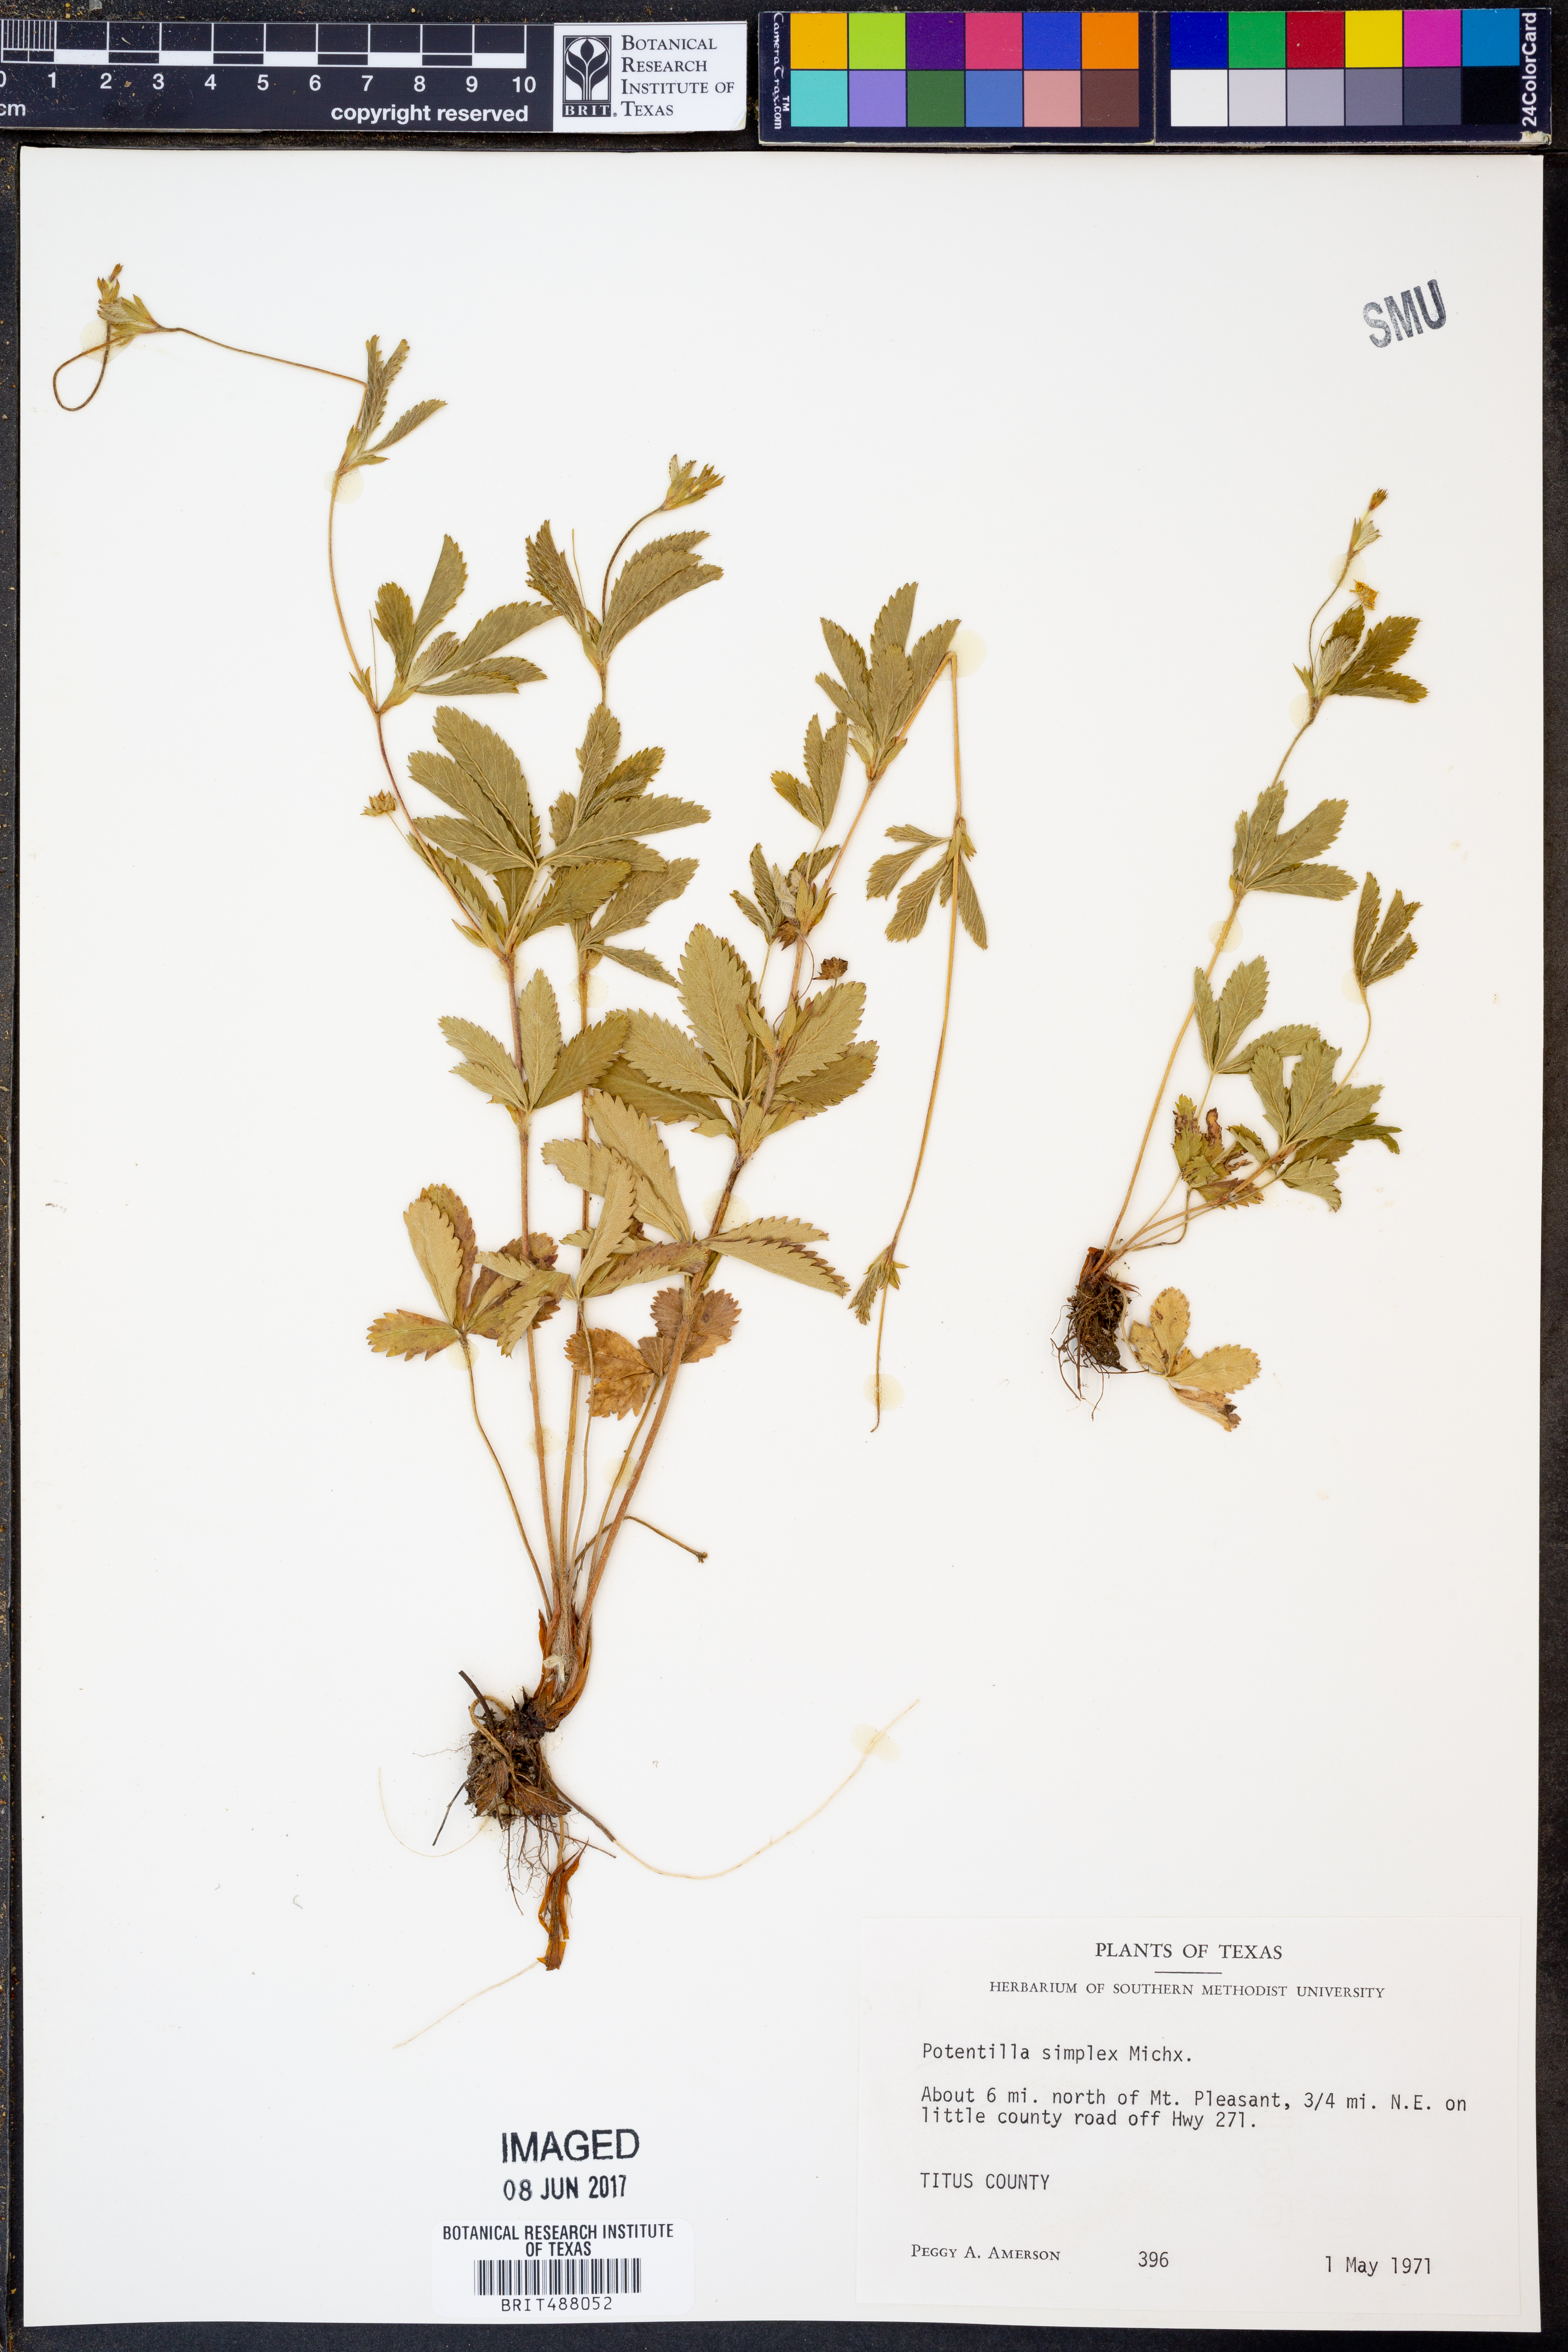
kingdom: Plantae
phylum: Tracheophyta
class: Magnoliopsida
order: Rosales
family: Rosaceae
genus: Potentilla
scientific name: Potentilla simplex
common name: Old field cinquefoil
